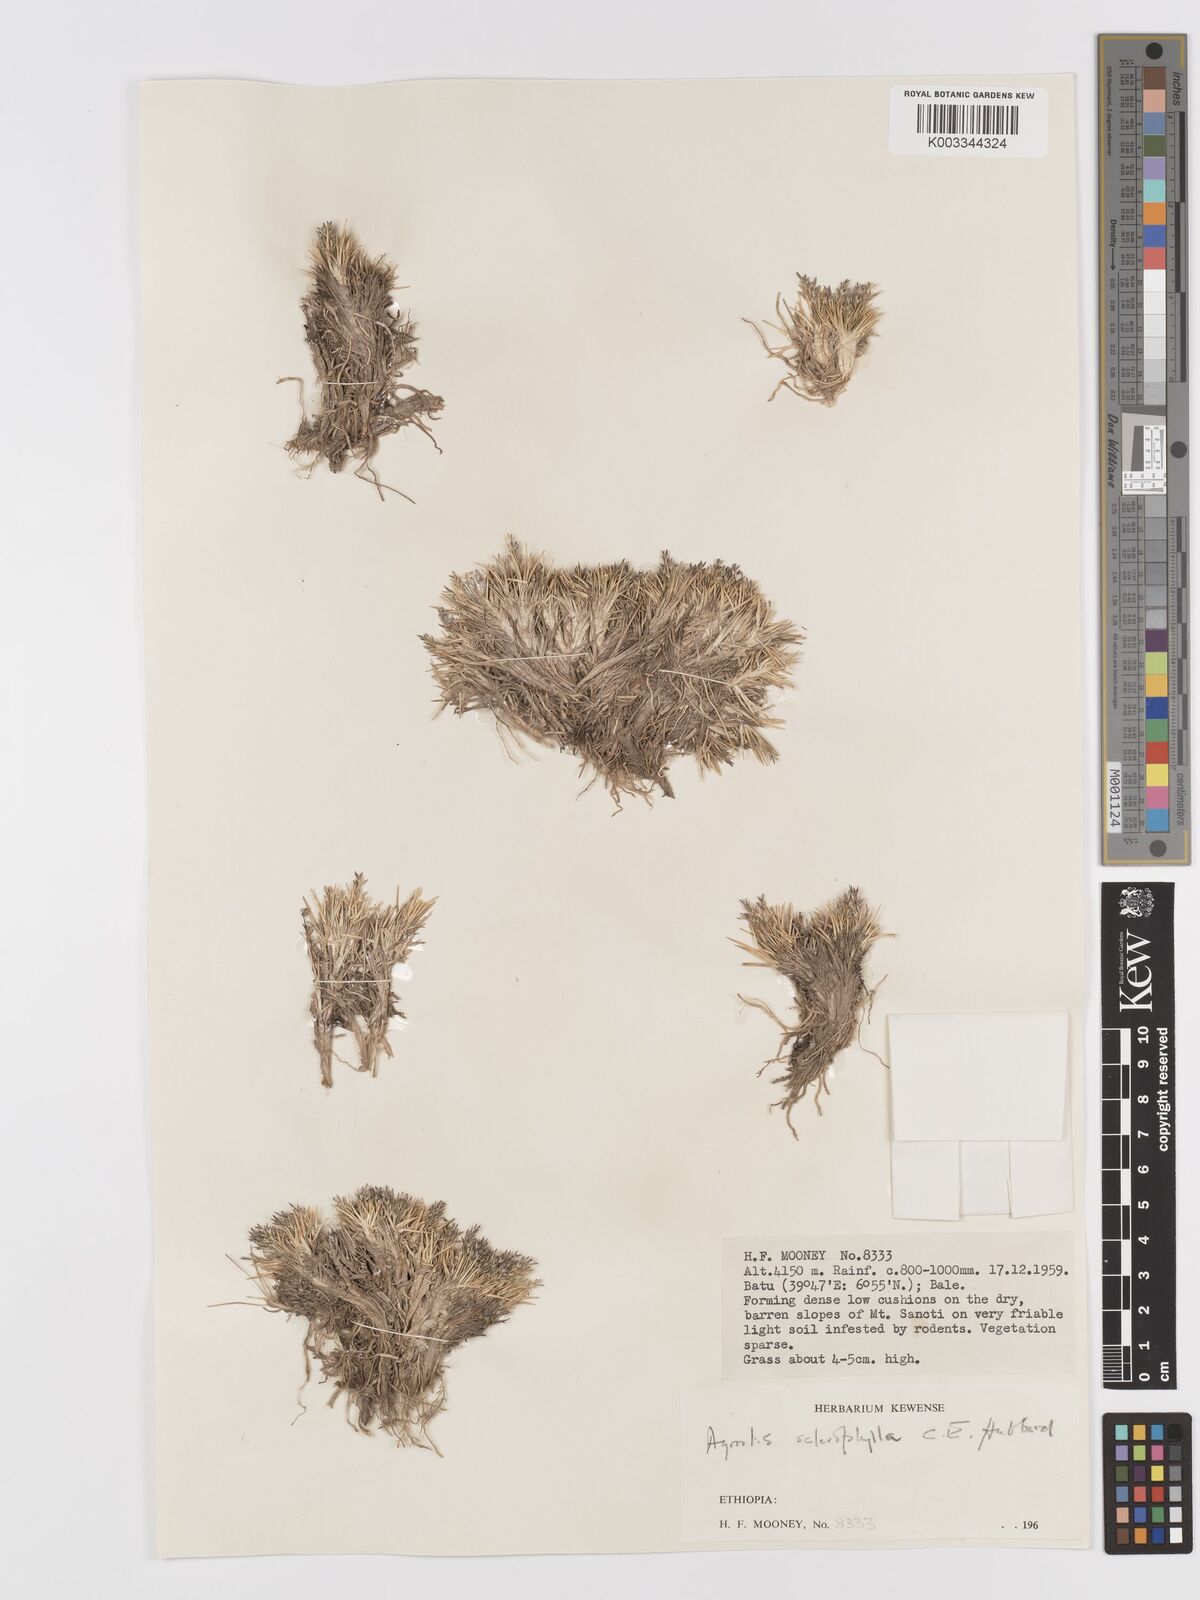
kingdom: Plantae
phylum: Tracheophyta
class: Liliopsida
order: Poales
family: Poaceae
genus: Agrostis
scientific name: Agrostis sclerophylla
